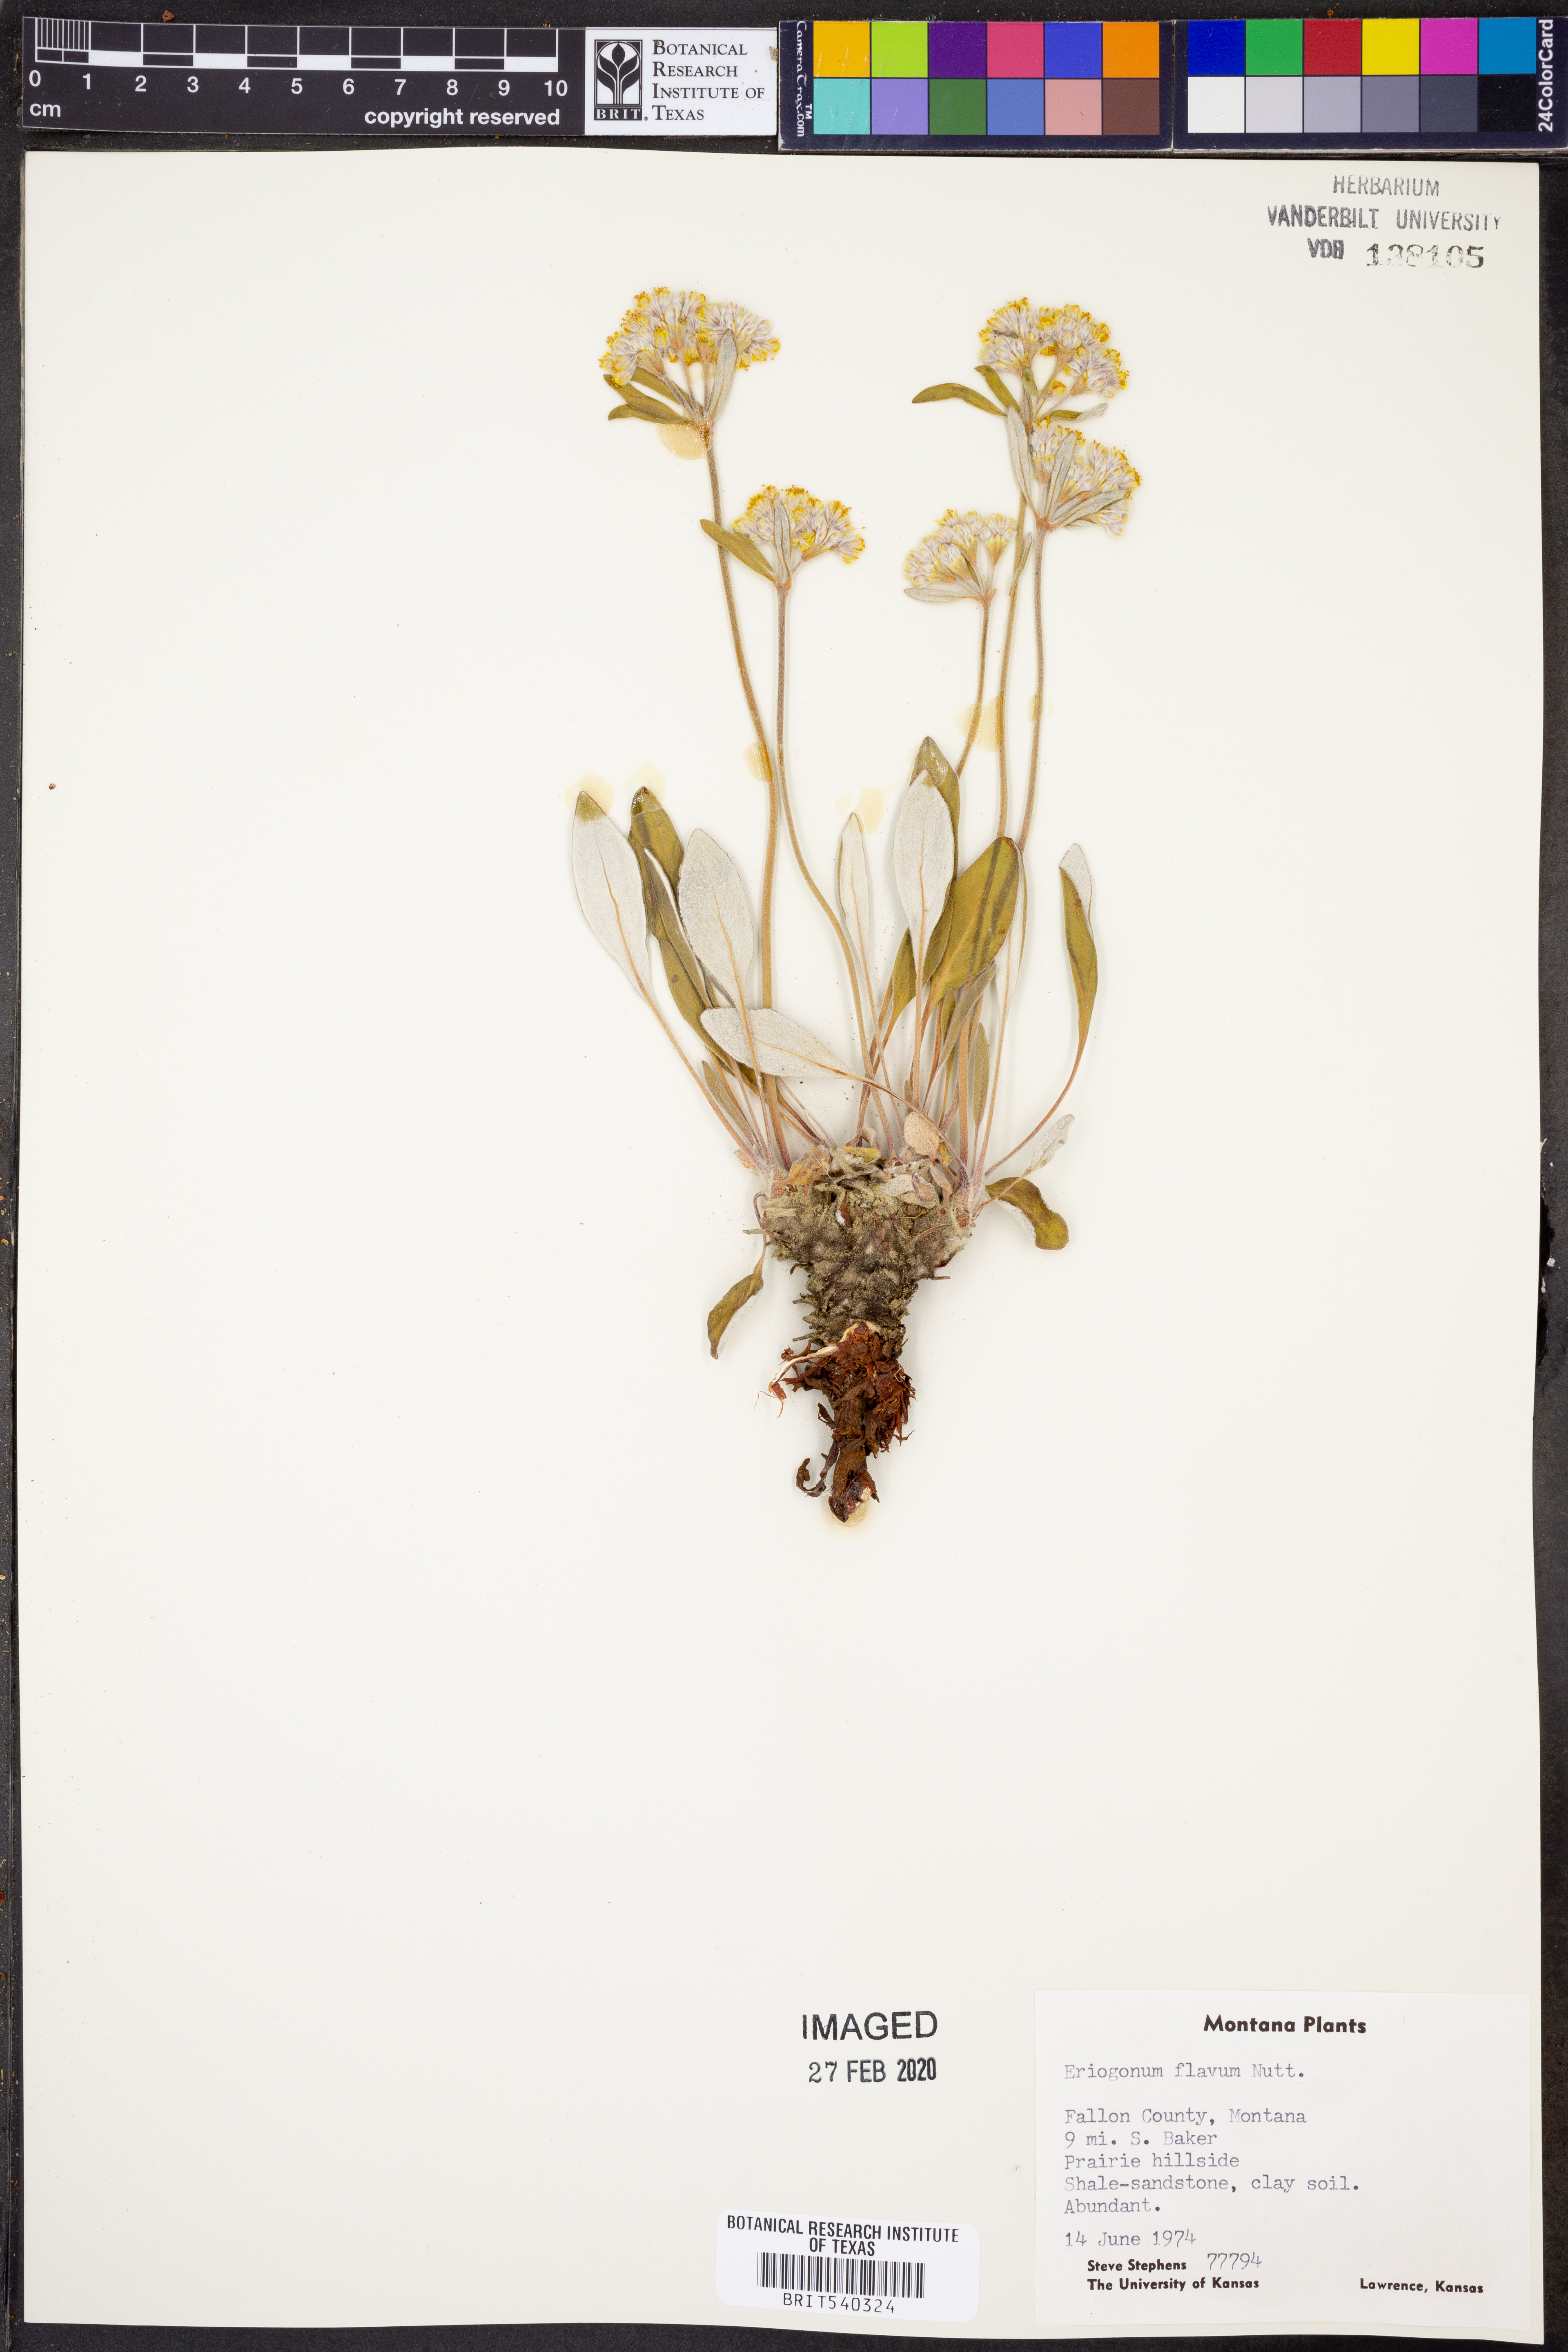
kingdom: Plantae
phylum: Tracheophyta
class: Magnoliopsida
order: Caryophyllales
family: Polygonaceae
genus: Eriogonum
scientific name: Eriogonum flavum
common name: Alpine golden wild buckwheat
